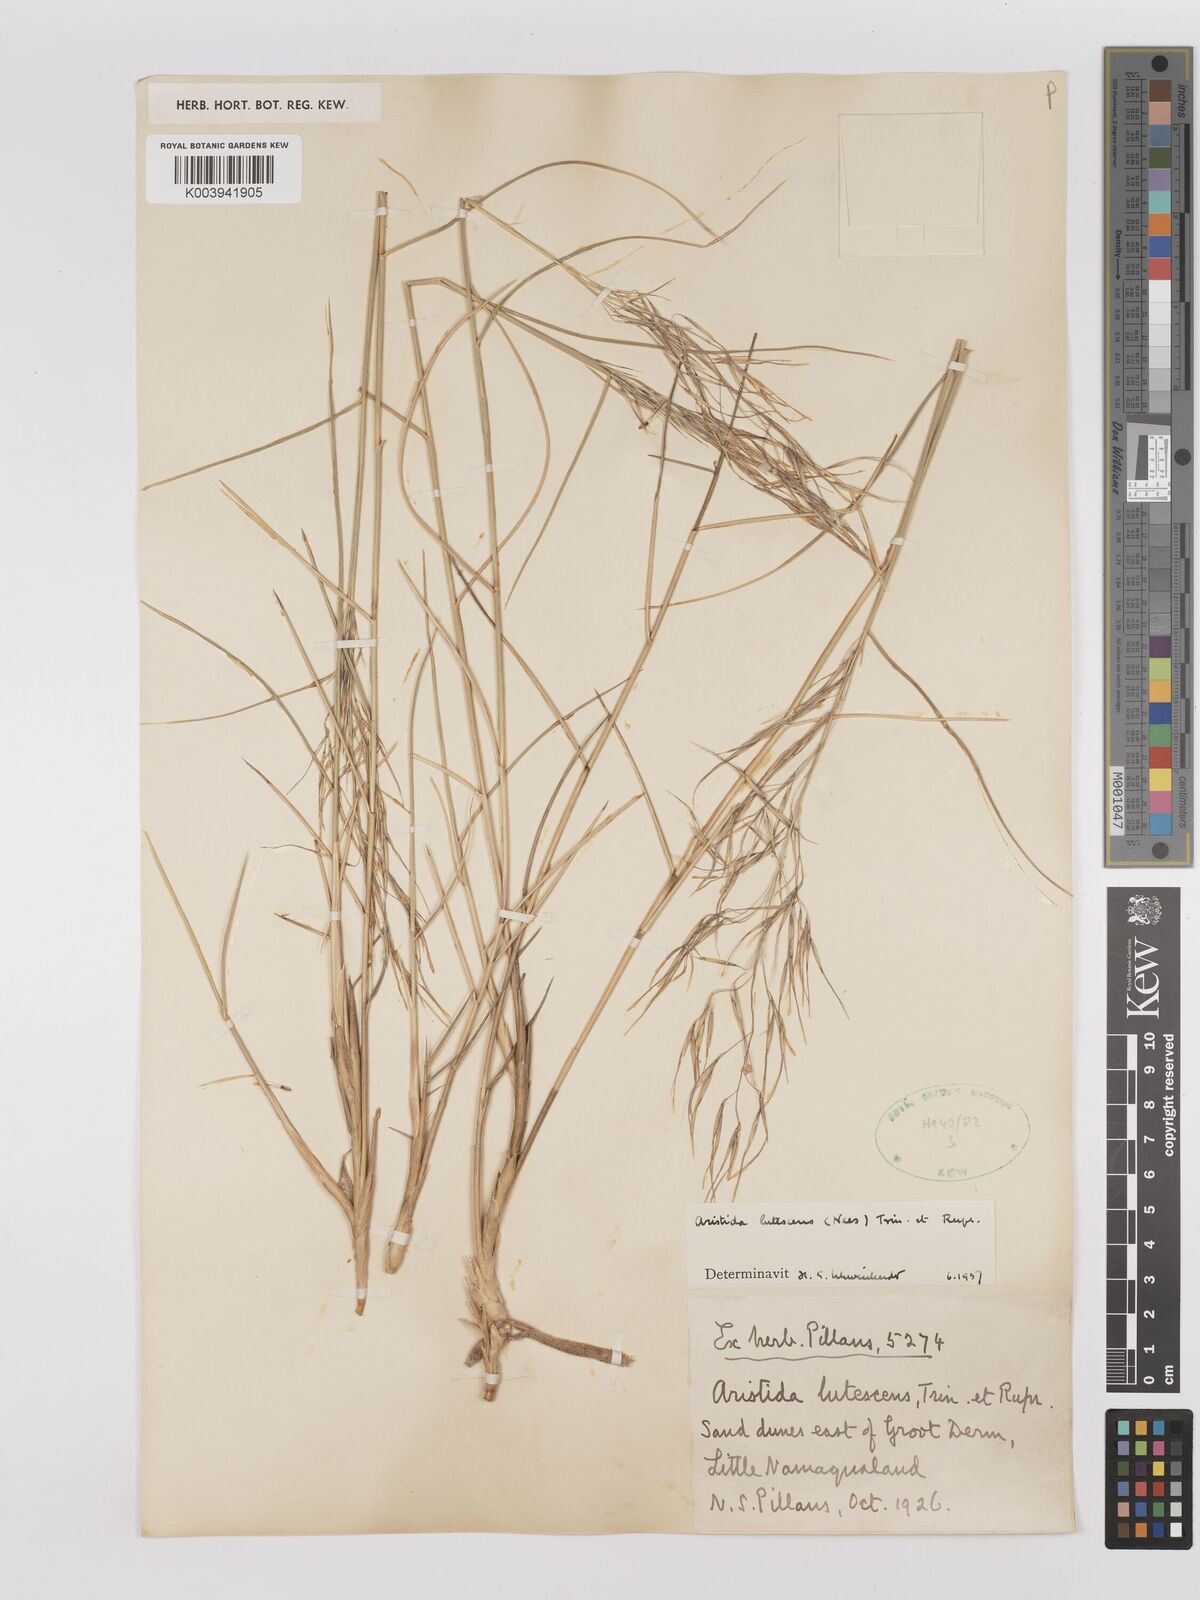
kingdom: Plantae
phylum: Tracheophyta
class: Liliopsida
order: Poales
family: Poaceae
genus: Stipagrostis
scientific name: Stipagrostis lutescens
